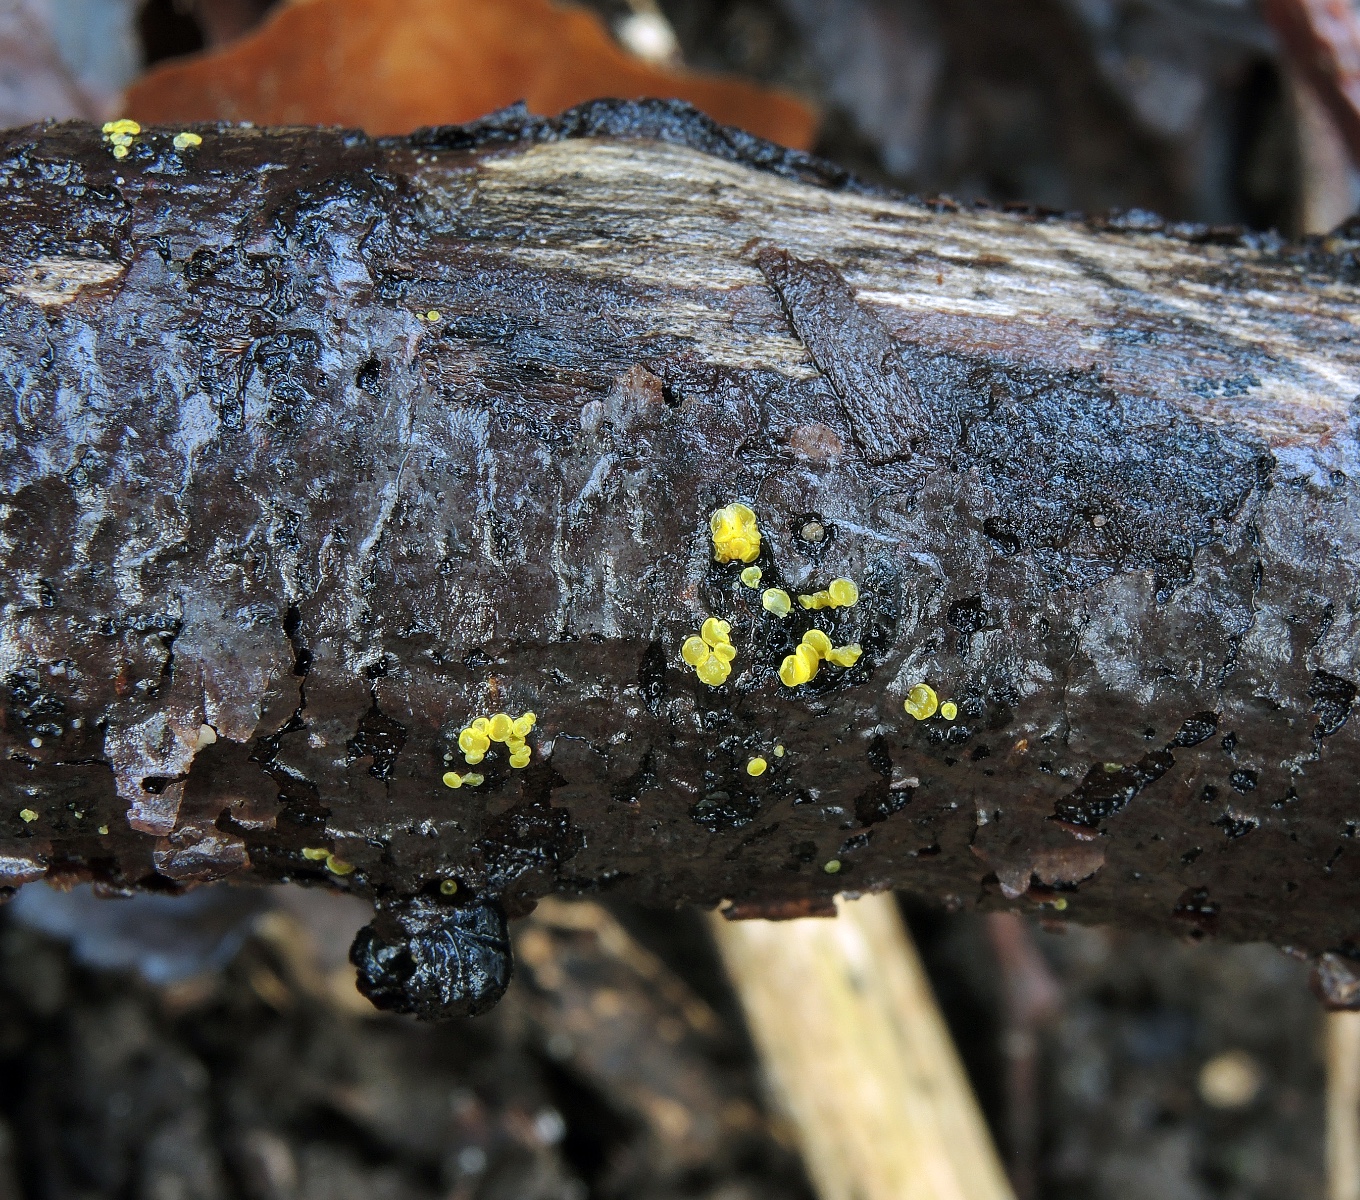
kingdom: Fungi
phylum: Ascomycota
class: Leotiomycetes
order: Helotiales
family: Pezizellaceae
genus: Calycina
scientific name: Calycina claroflava
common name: snyltende gulskive
